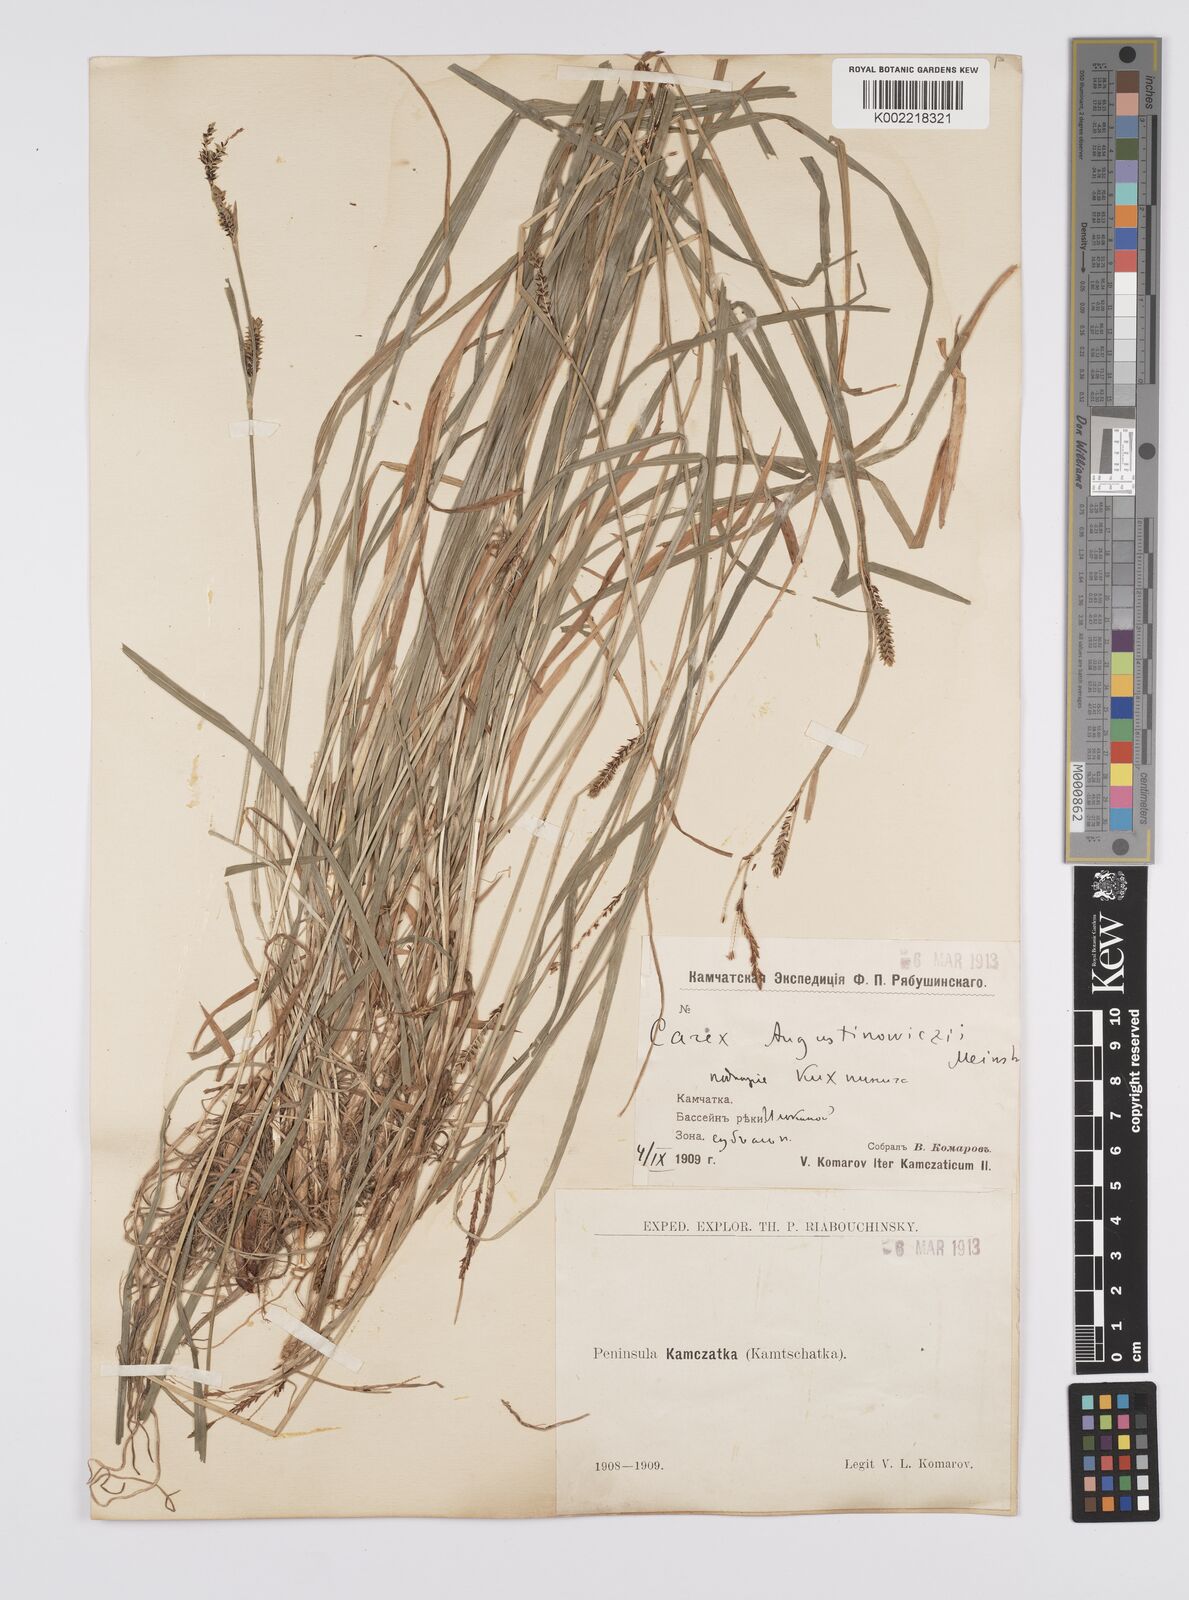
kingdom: Plantae
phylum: Tracheophyta
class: Liliopsida
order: Poales
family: Cyperaceae
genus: Carex
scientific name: Carex augustinowiczii
